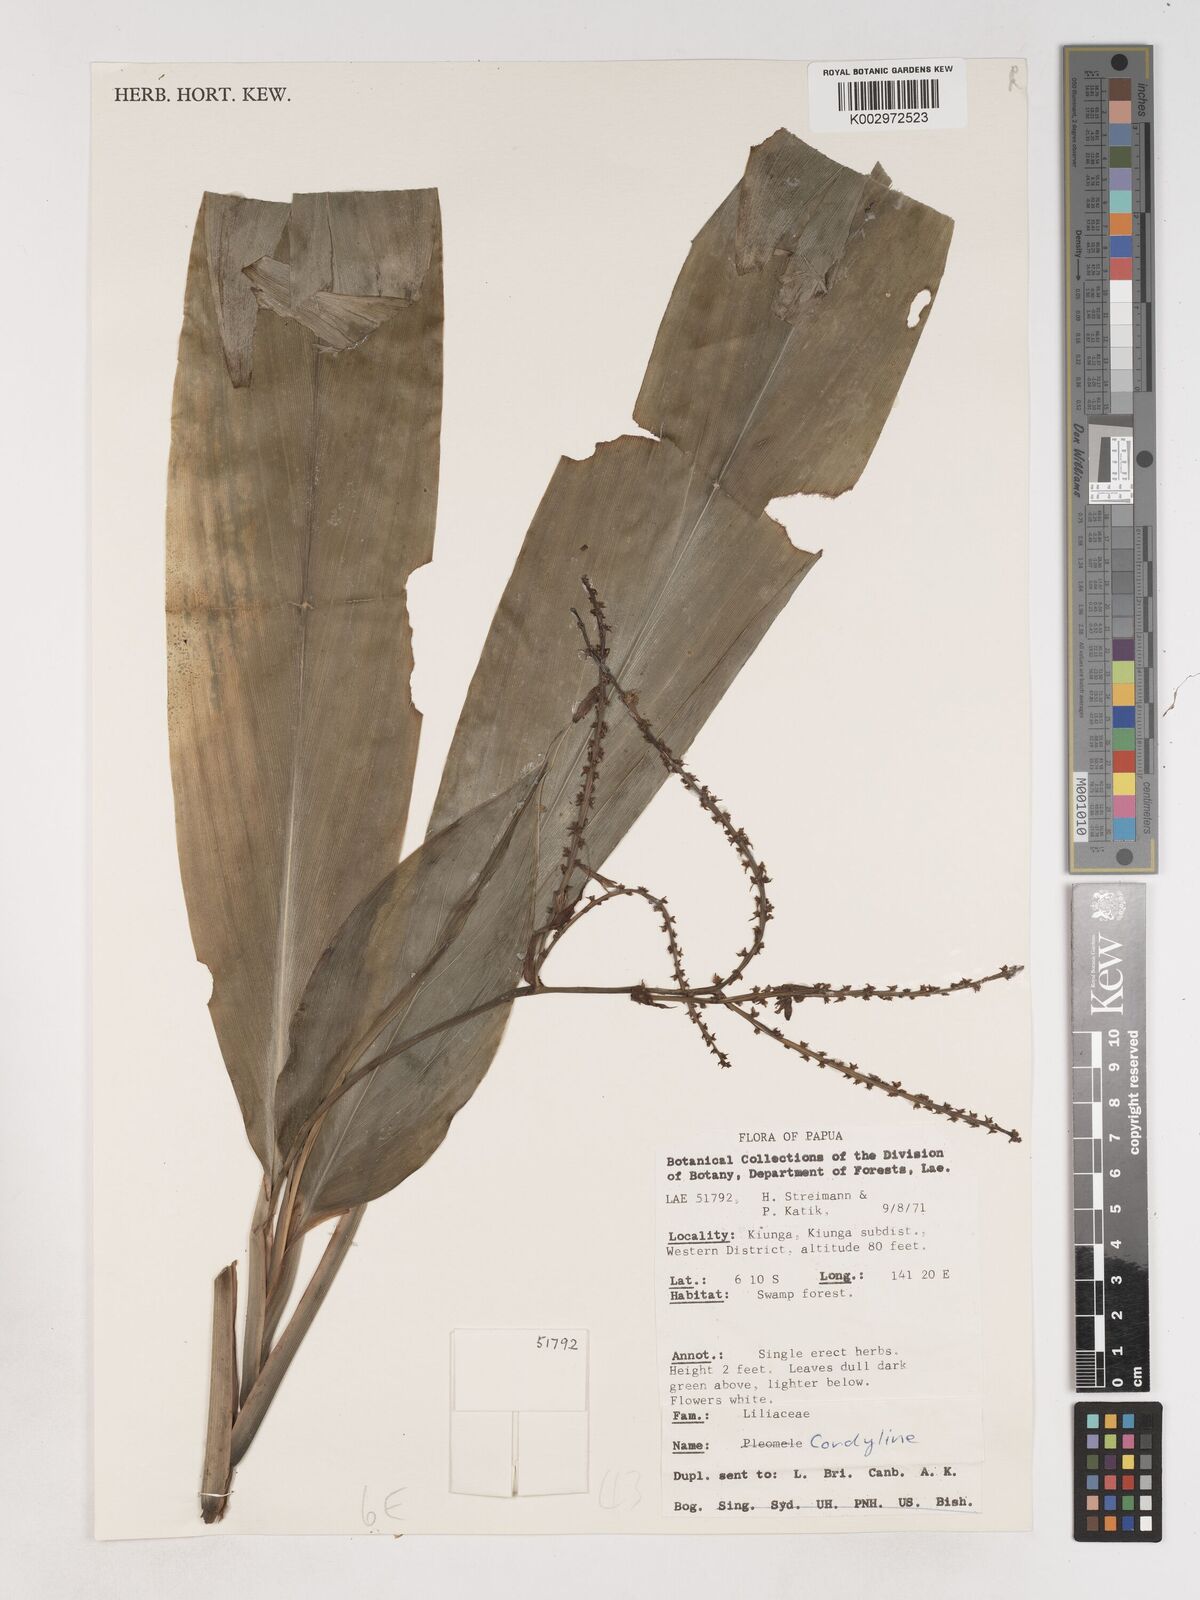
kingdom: Plantae
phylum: Tracheophyta
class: Liliopsida
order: Asparagales
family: Asparagaceae
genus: Cordyline
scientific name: Cordyline
